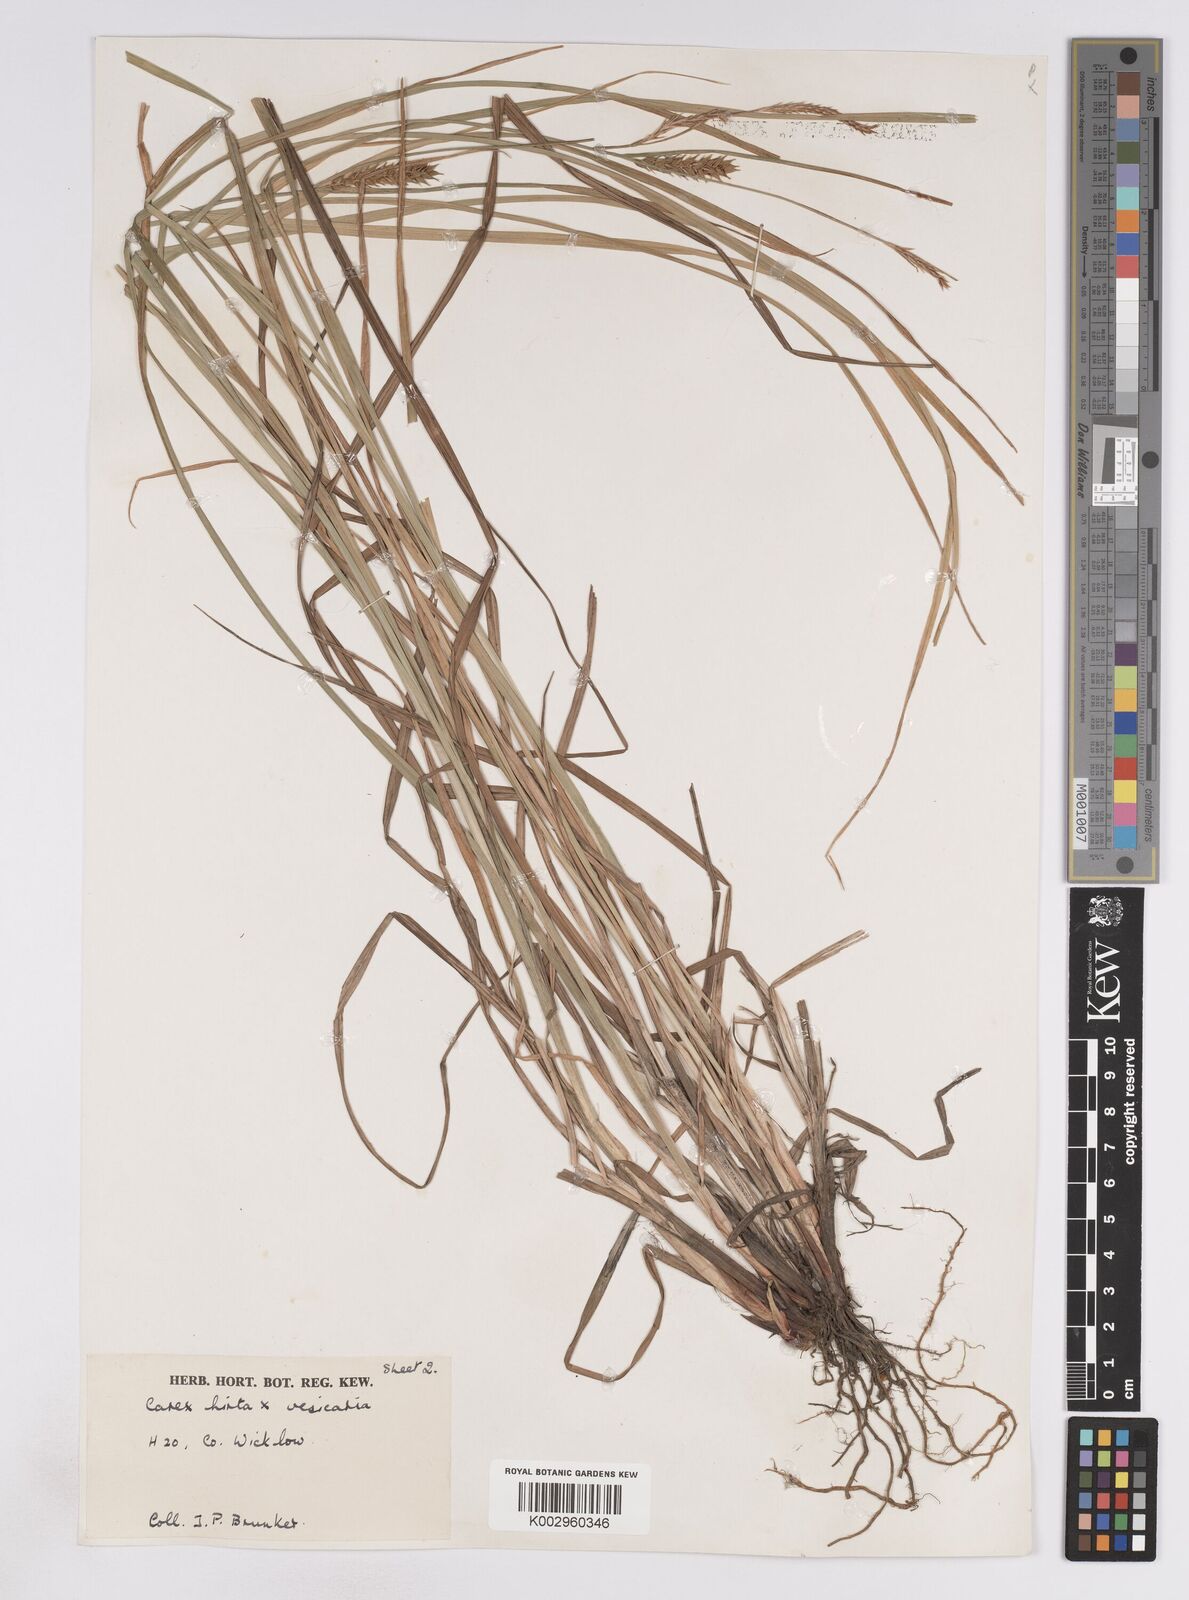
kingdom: Plantae
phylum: Tracheophyta
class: Liliopsida
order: Poales
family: Cyperaceae
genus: Carex
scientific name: Carex vesicaria
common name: Bladder-sedge
